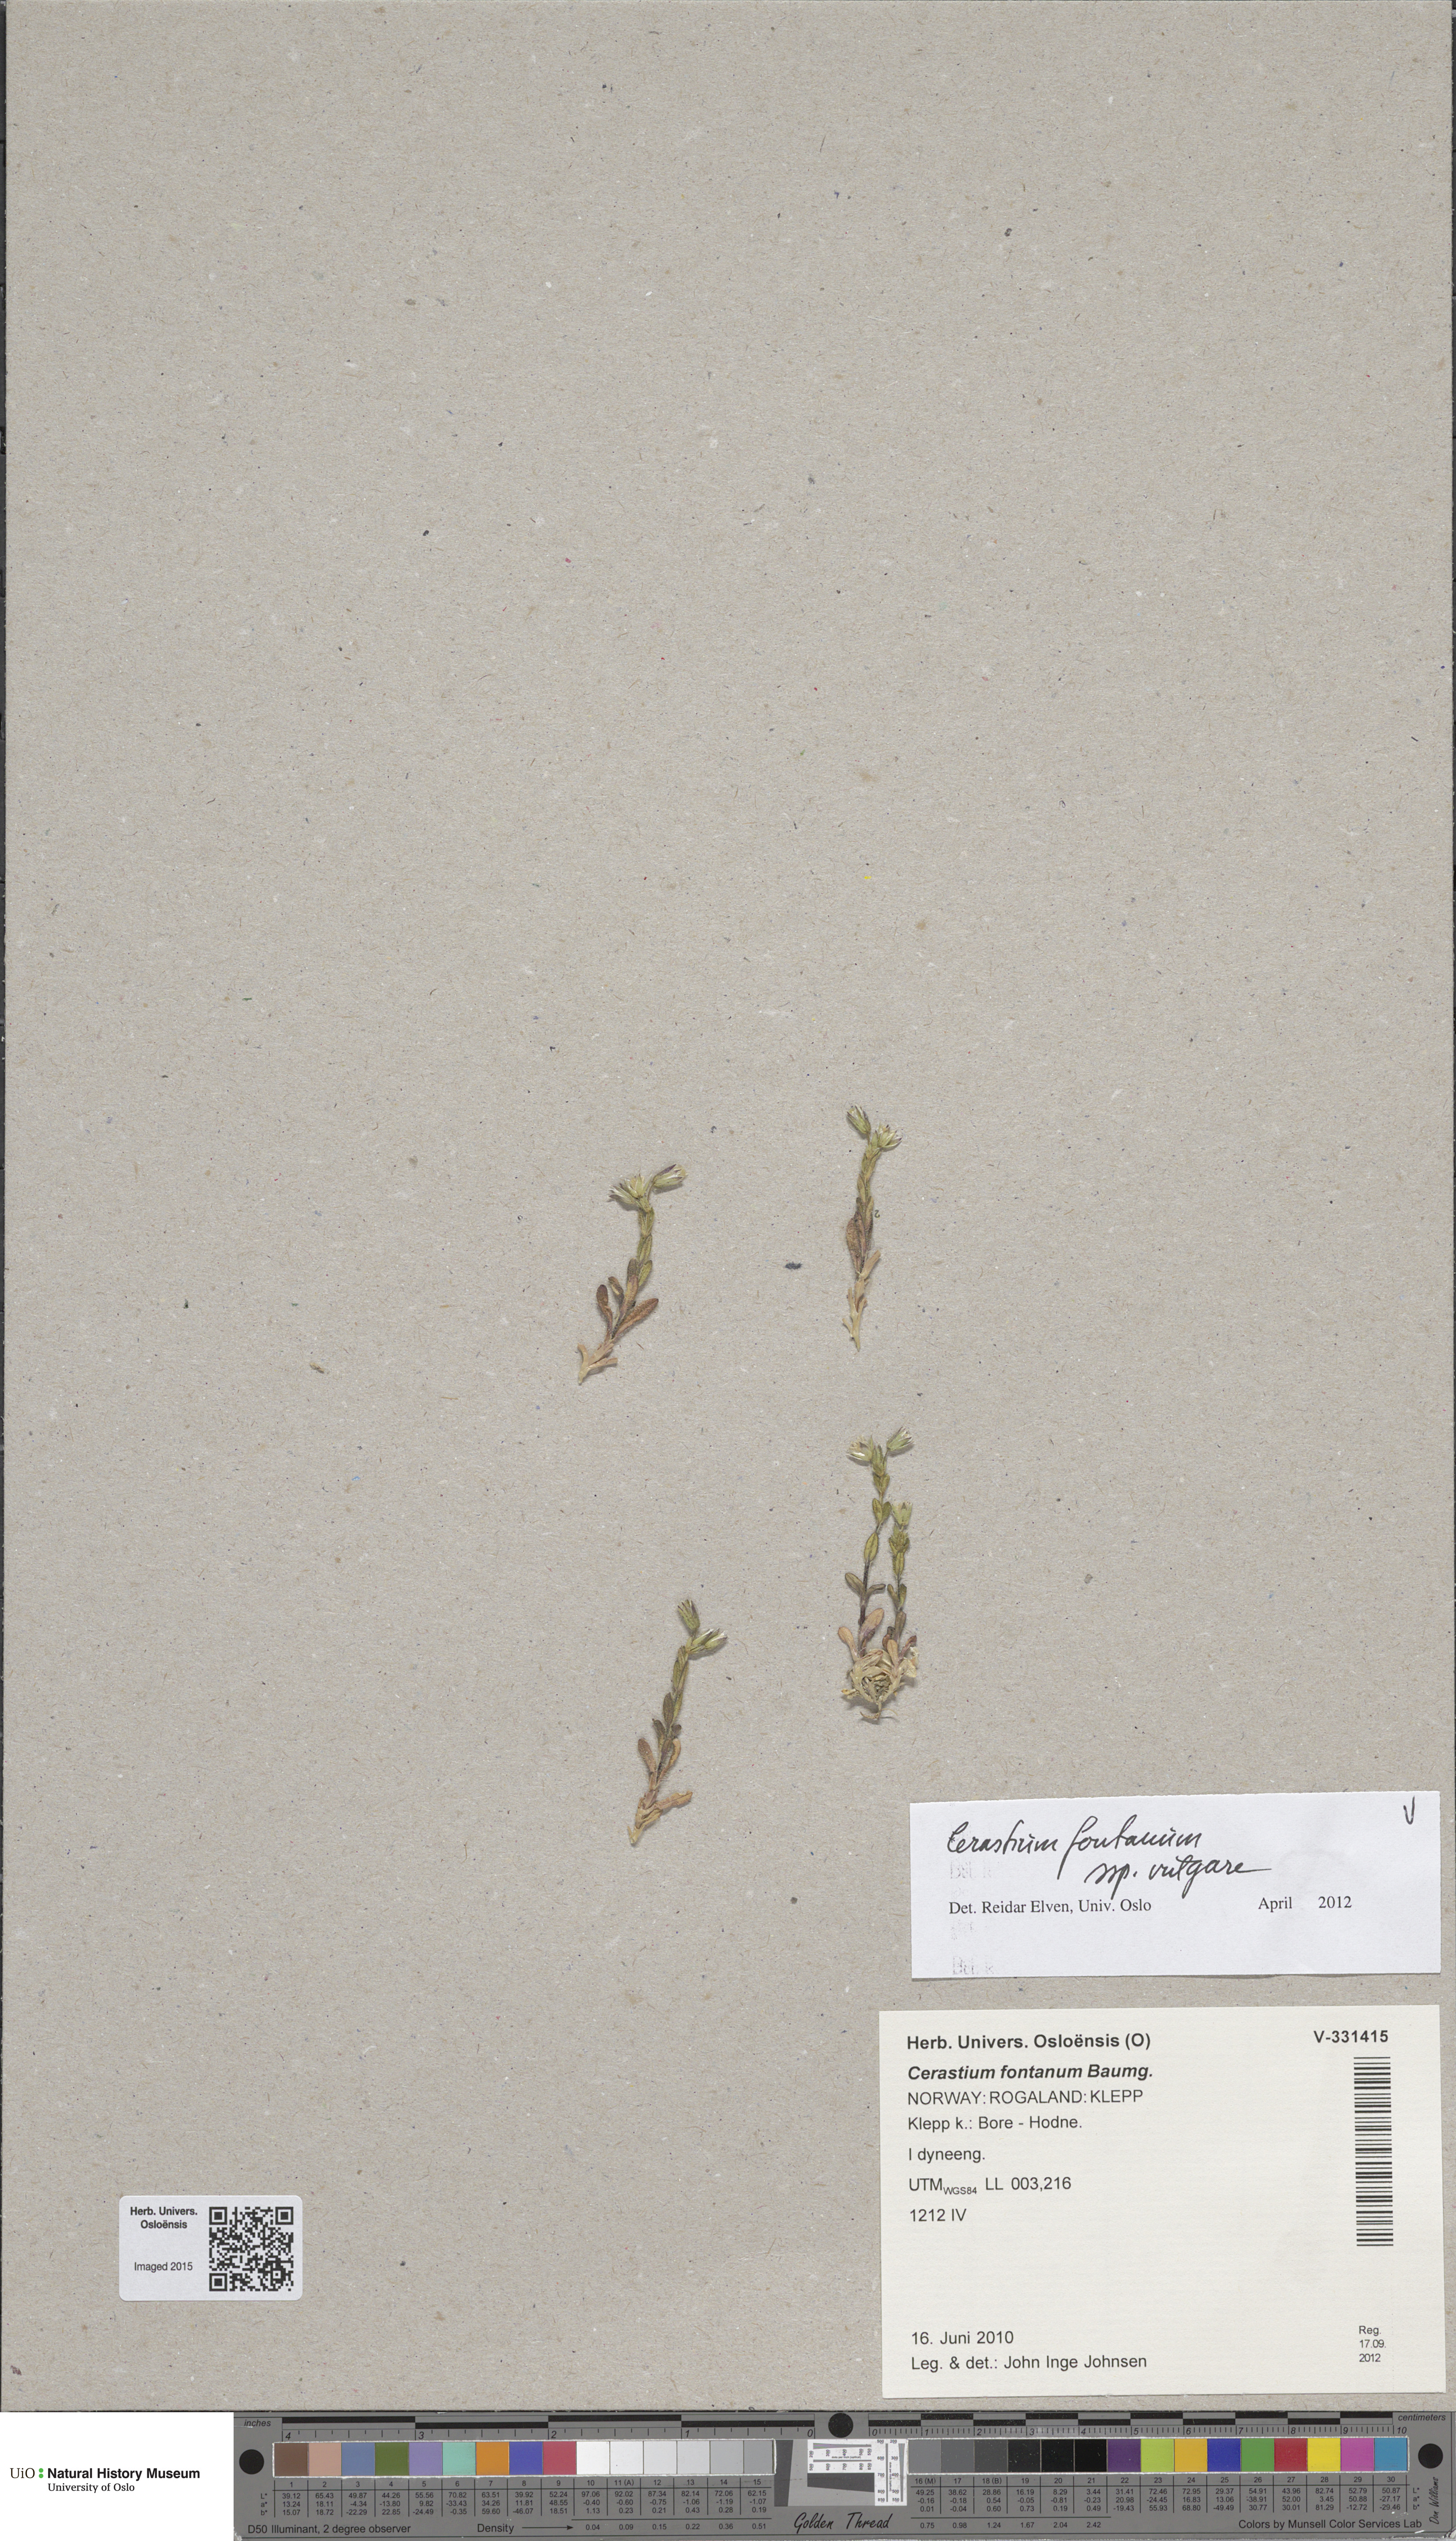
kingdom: Plantae
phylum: Tracheophyta
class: Magnoliopsida
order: Caryophyllales
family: Caryophyllaceae
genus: Cerastium
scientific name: Cerastium holosteoides
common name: Big chickweed
